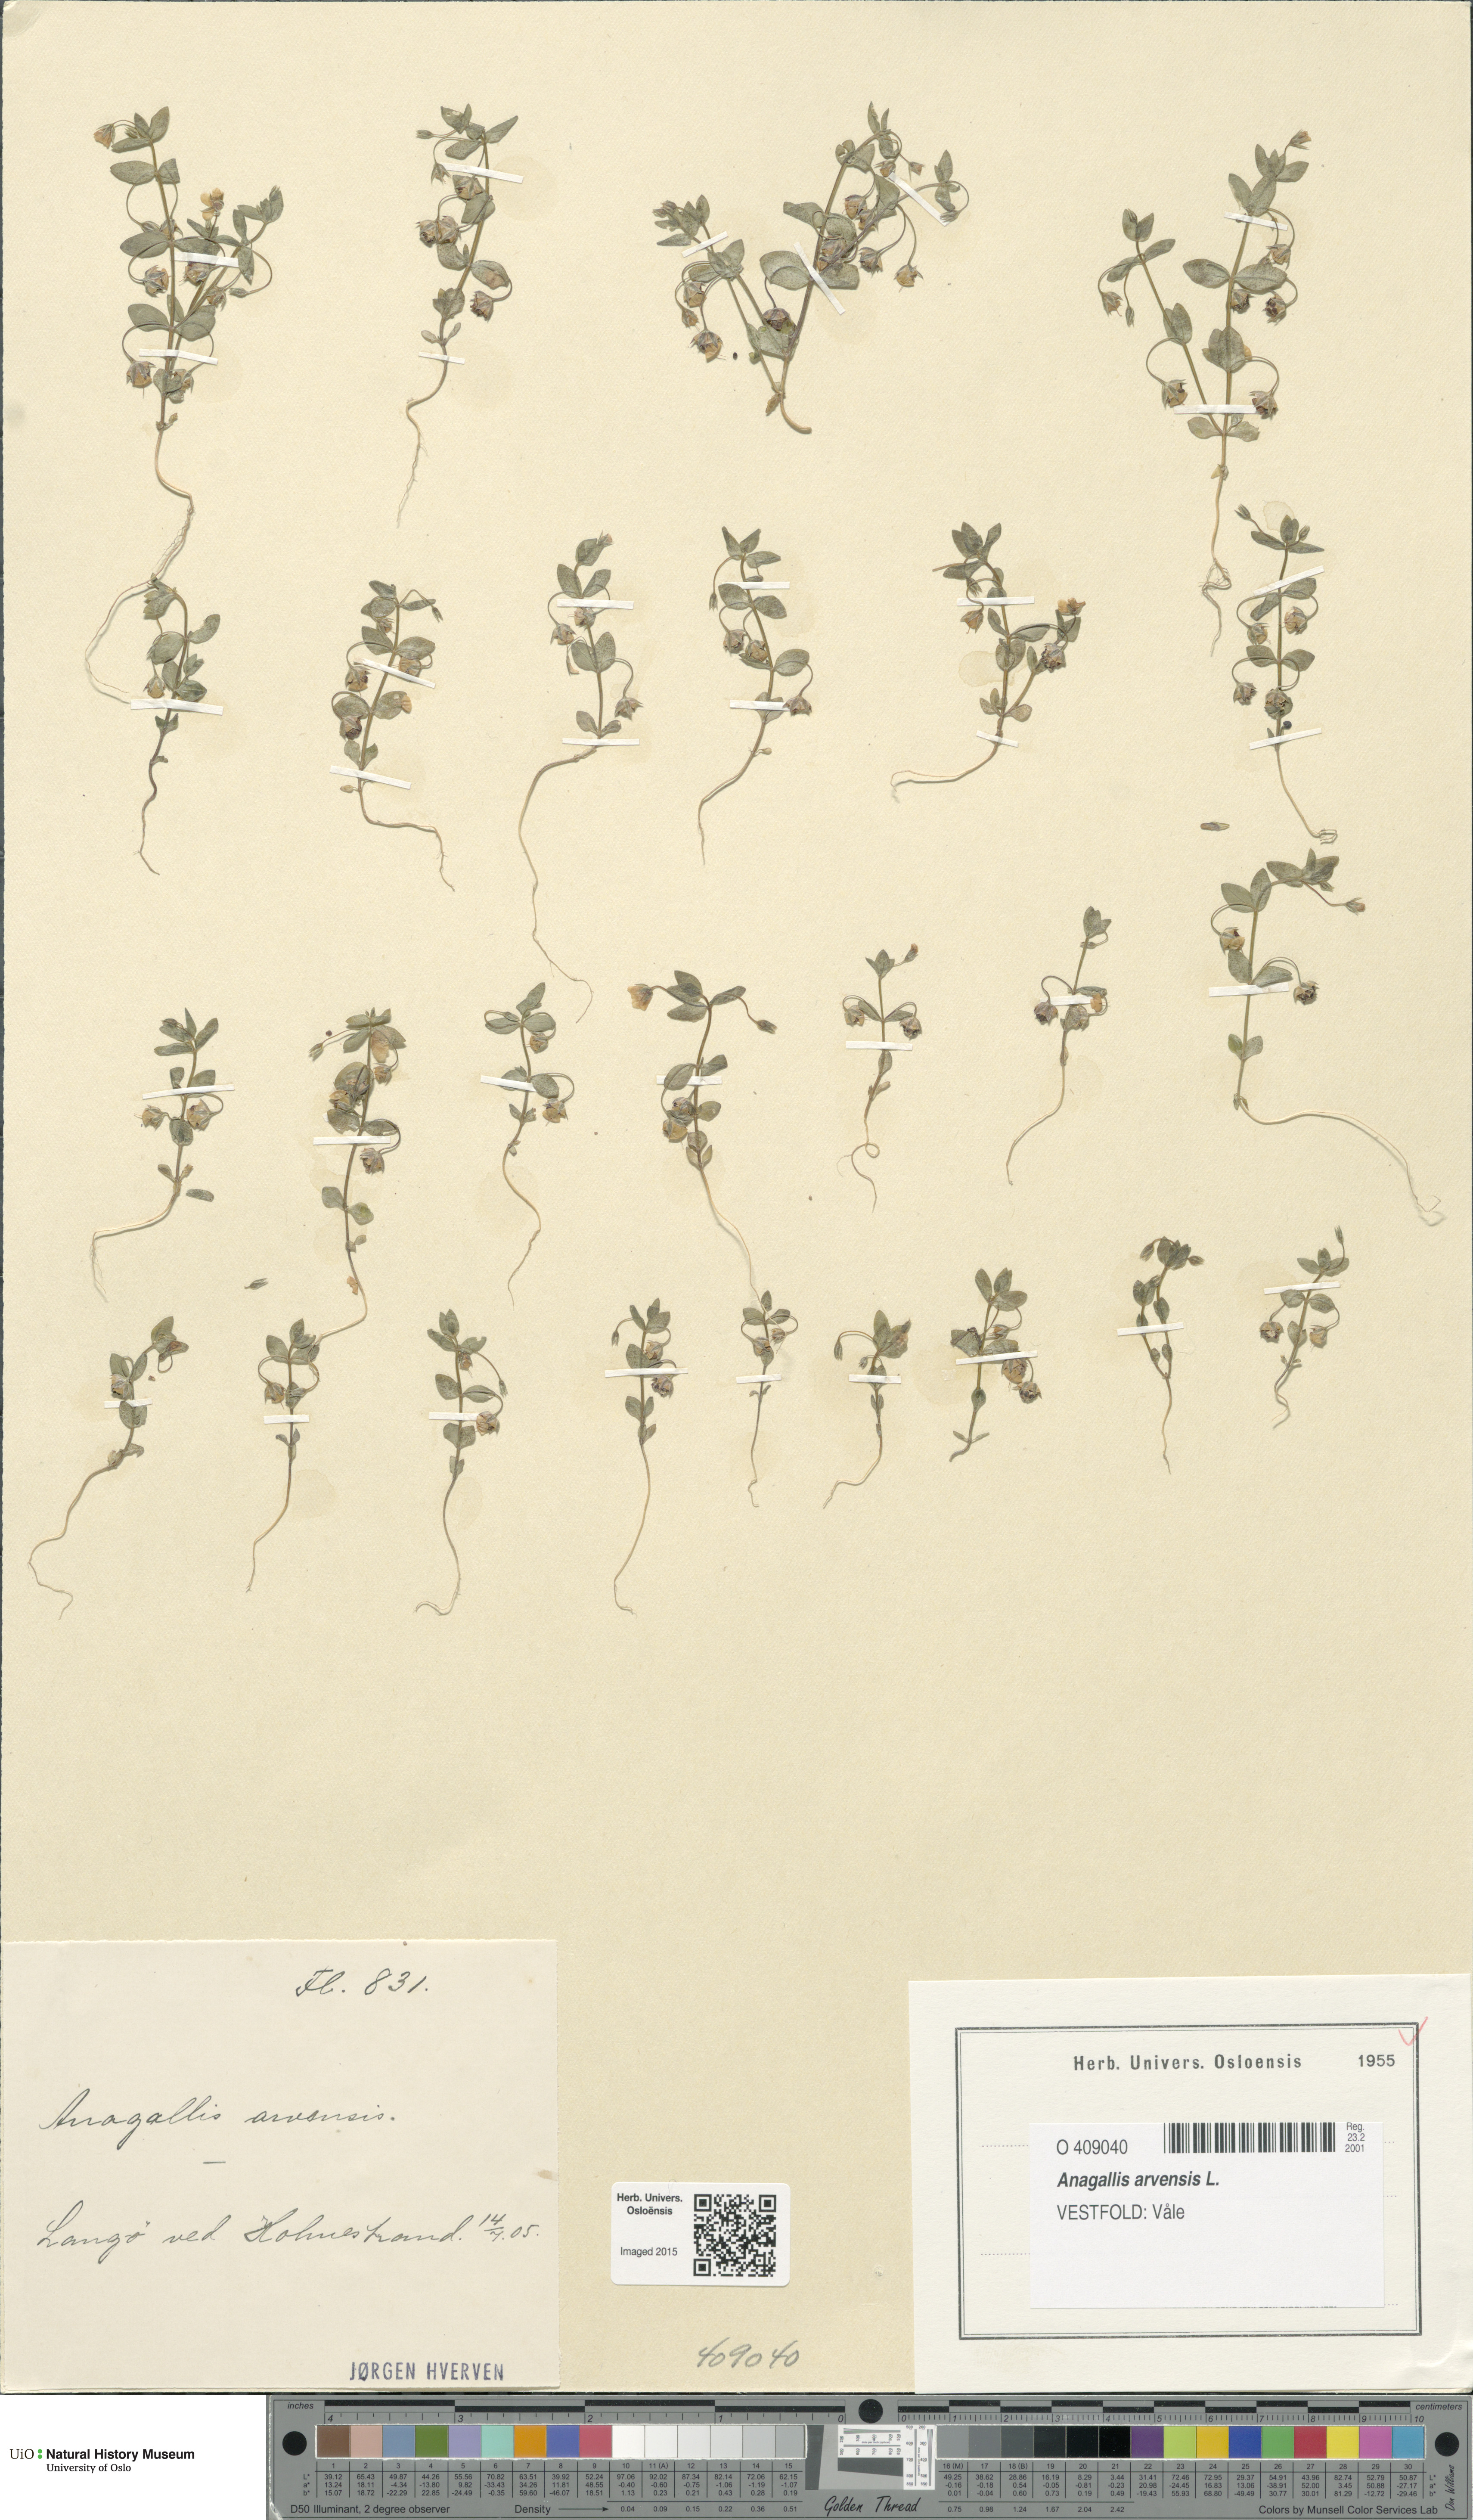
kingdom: Plantae
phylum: Tracheophyta
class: Magnoliopsida
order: Ericales
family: Primulaceae
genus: Lysimachia
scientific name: Lysimachia arvensis
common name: Scarlet pimpernel
